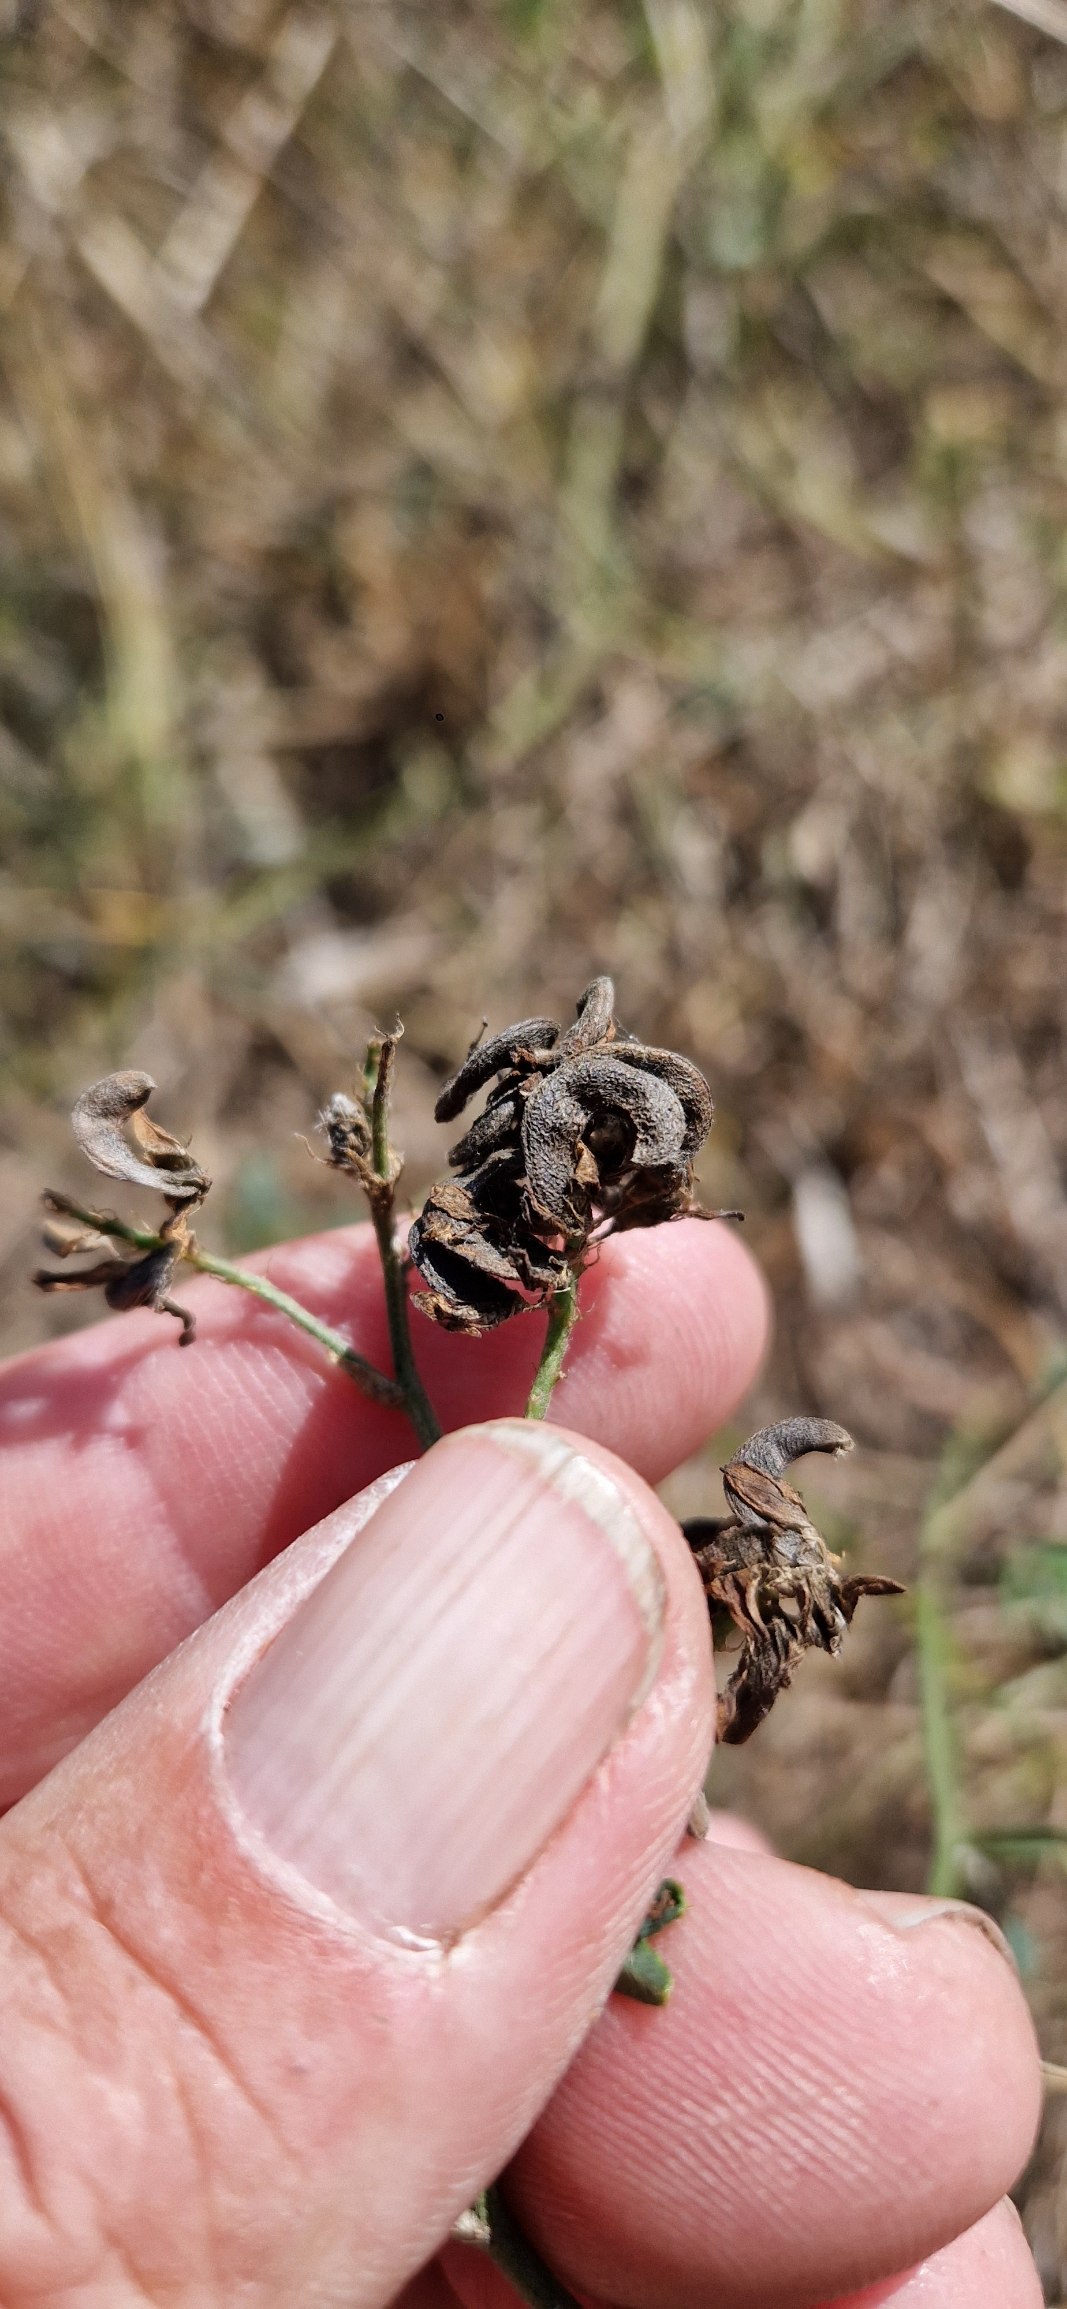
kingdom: Plantae
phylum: Tracheophyta
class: Magnoliopsida
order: Fabales
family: Fabaceae
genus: Medicago
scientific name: Medicago varia
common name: Sand-lucerne
